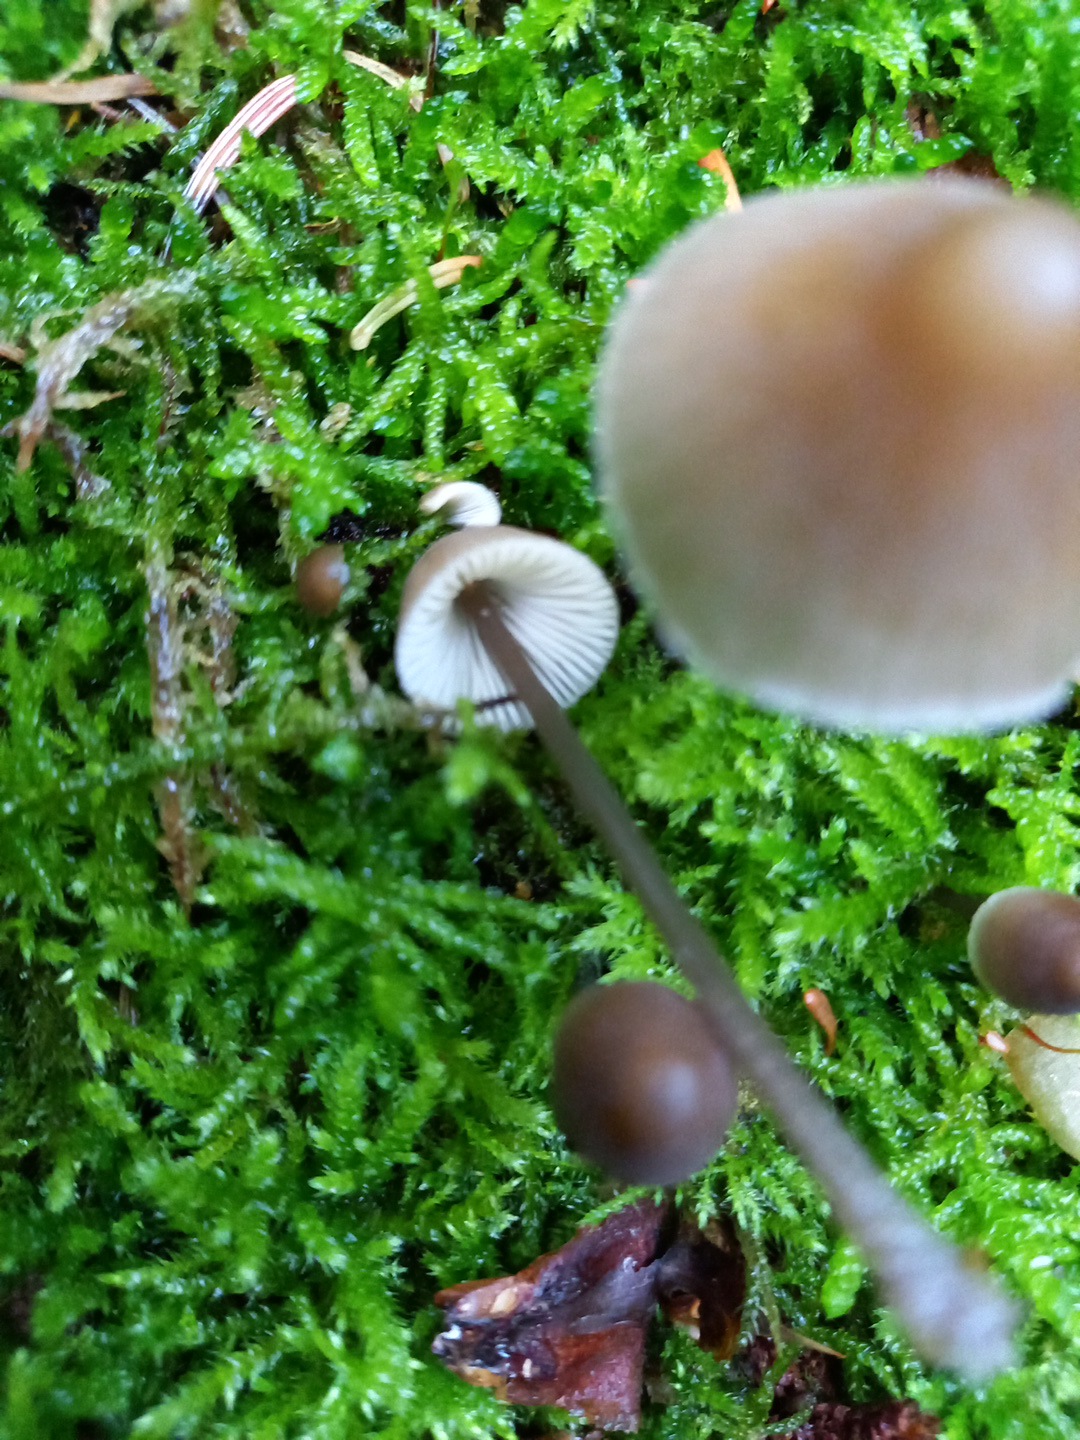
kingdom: Fungi
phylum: Basidiomycota
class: Agaricomycetes
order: Agaricales
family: Mycenaceae
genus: Mycena
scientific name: Mycena
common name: huesvamp
